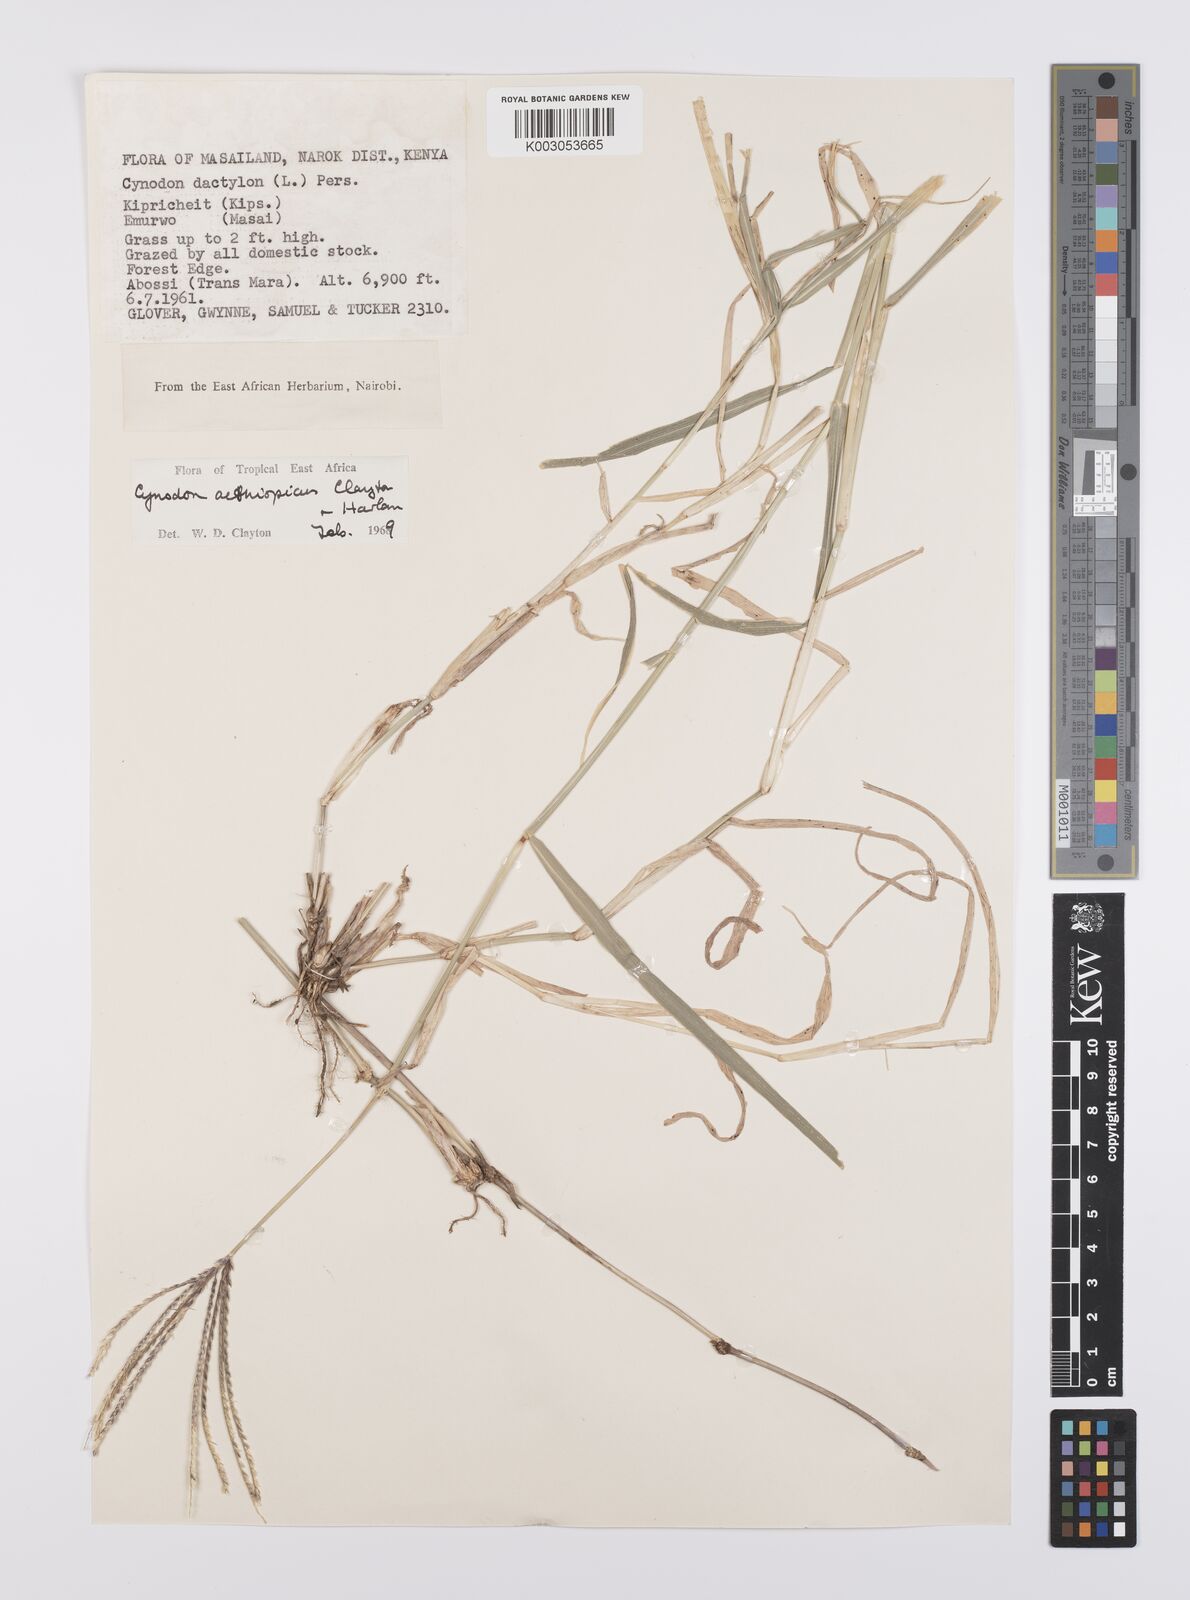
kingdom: Plantae
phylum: Tracheophyta
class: Liliopsida
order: Poales
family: Poaceae
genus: Cynodon
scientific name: Cynodon aethiopicus
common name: Ethiopian dogstooth grass
